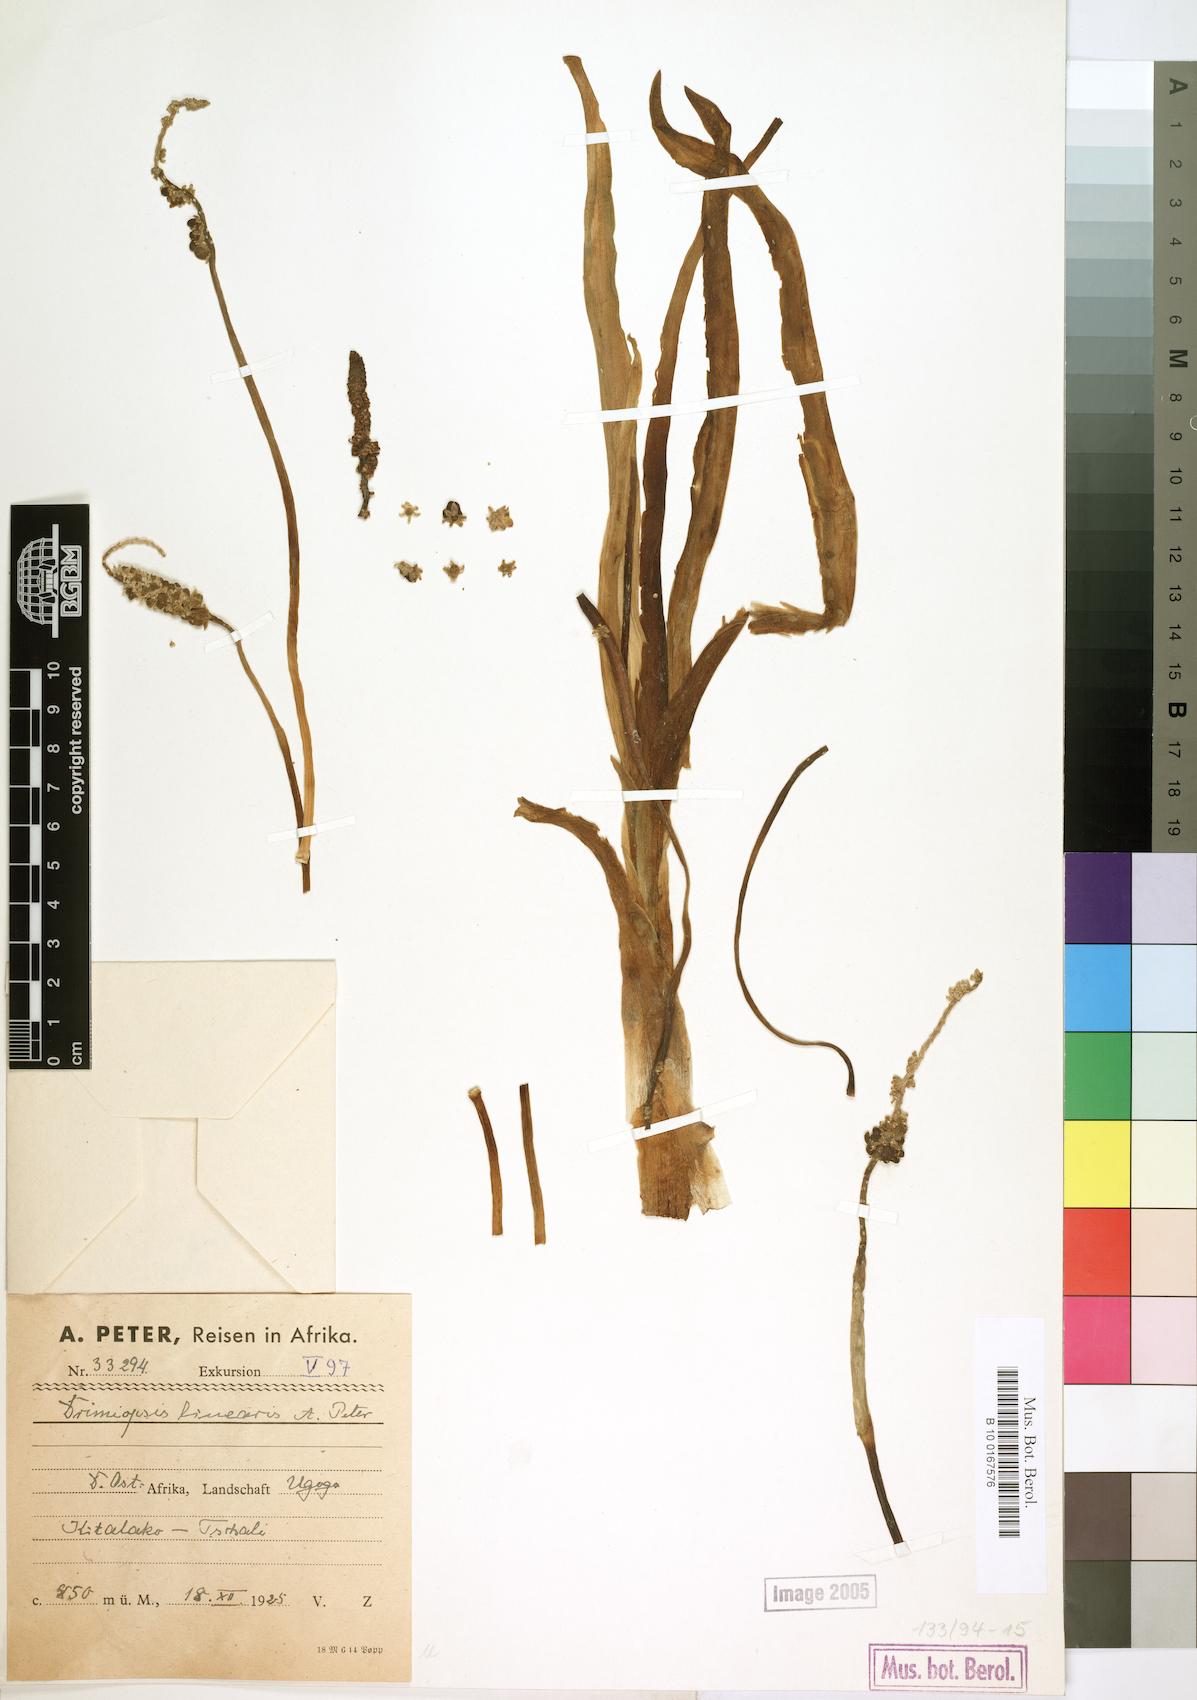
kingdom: Plantae
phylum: Tracheophyta
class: Liliopsida
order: Asparagales
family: Asparagaceae
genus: Drimiopsis
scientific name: Drimiopsis
